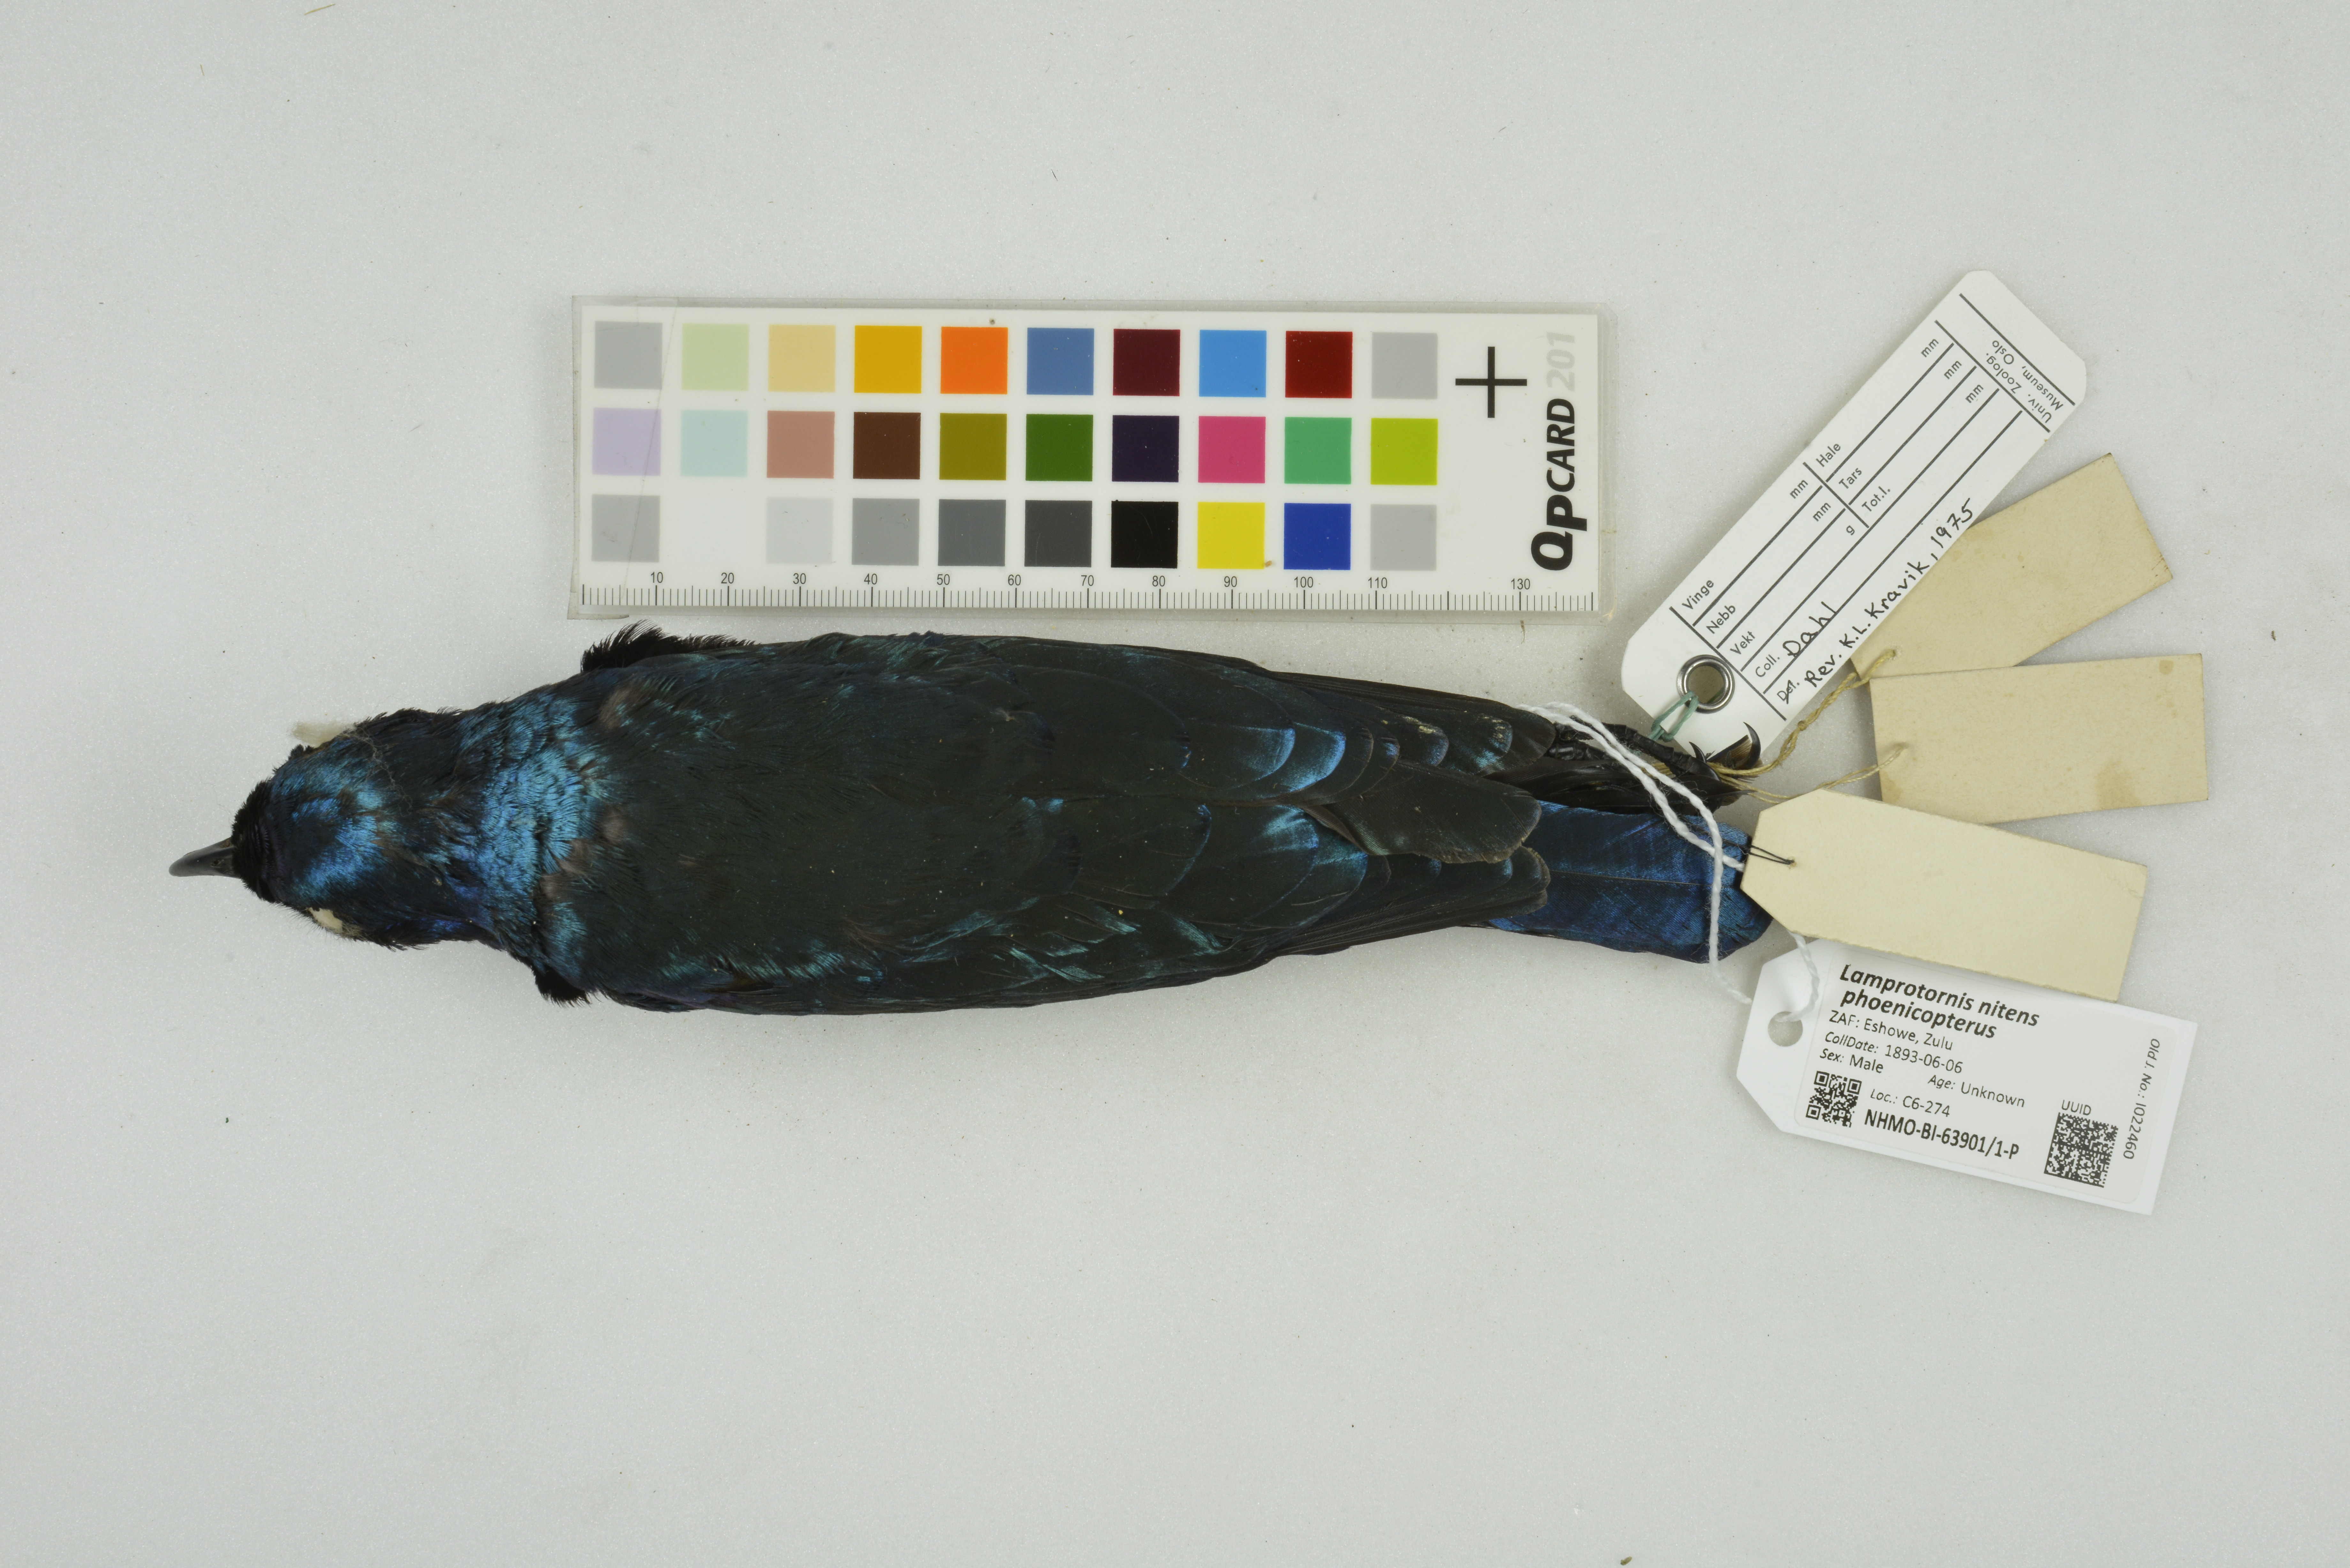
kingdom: Animalia
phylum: Chordata
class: Aves
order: Passeriformes
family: Sturnidae
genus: Lamprotornis
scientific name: Lamprotornis nitens
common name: Cape starling
